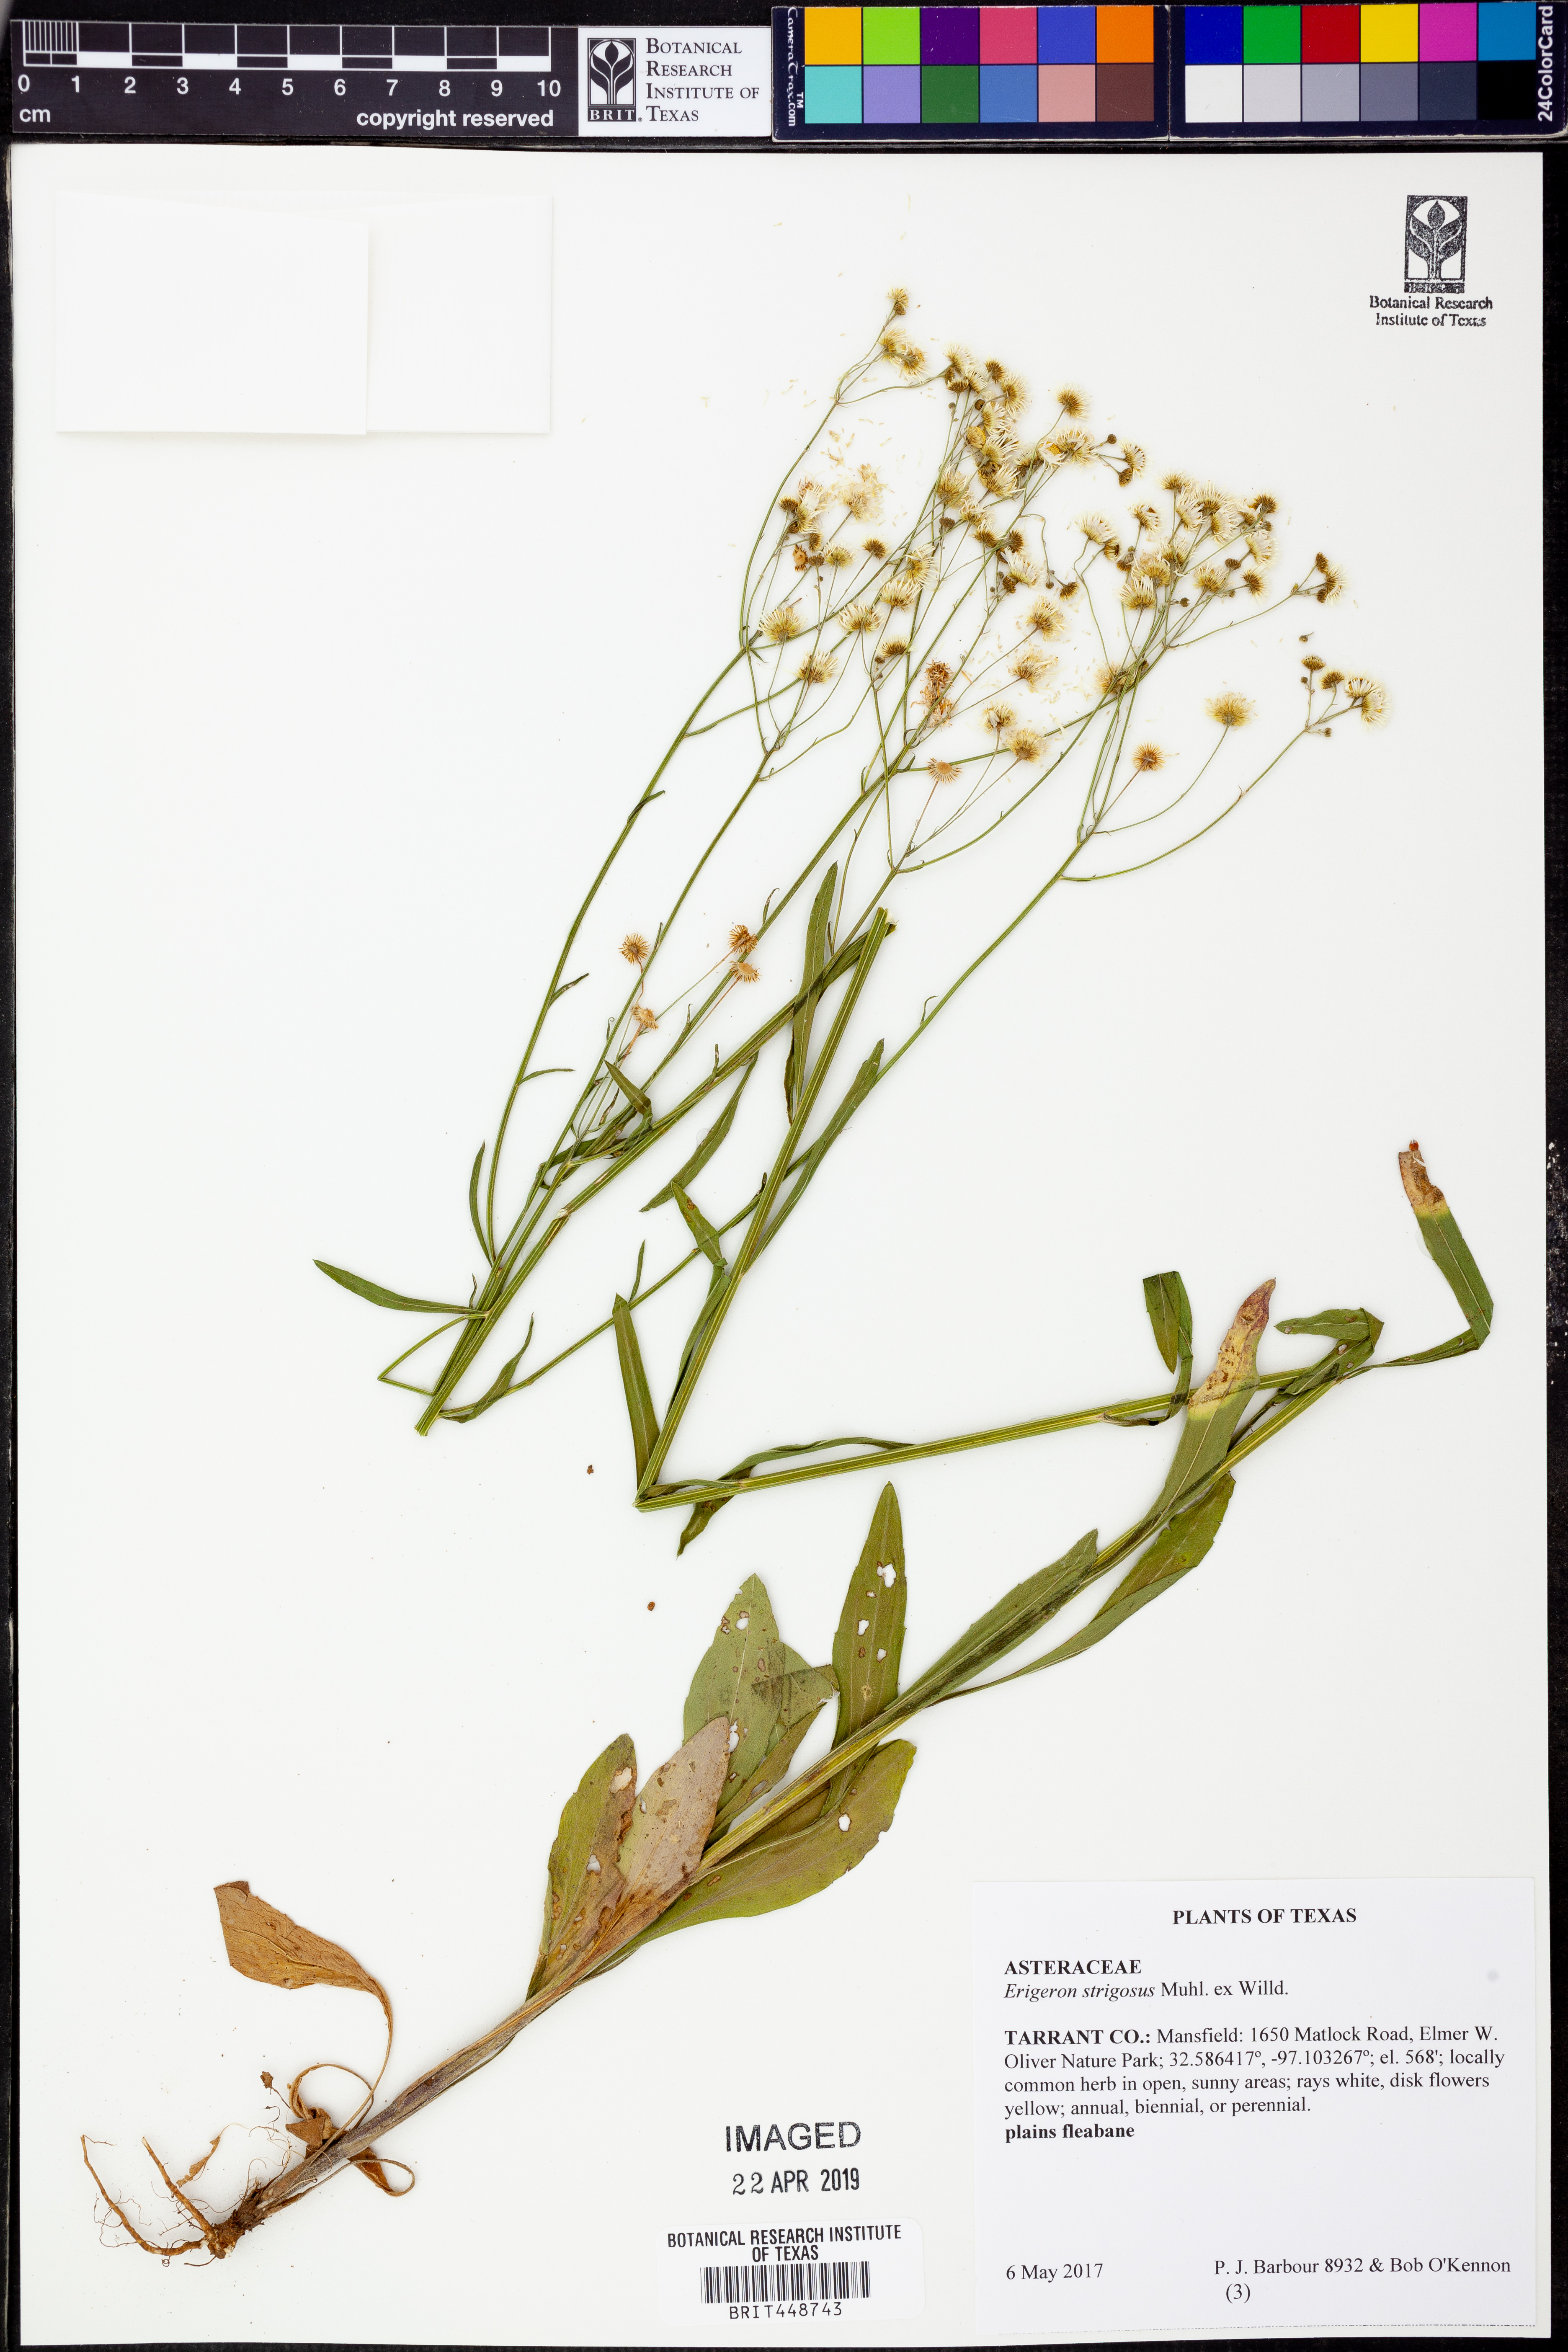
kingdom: Plantae
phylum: Tracheophyta
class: Magnoliopsida
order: Asterales
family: Asteraceae
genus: Erigeron
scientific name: Erigeron strigosus
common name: Common eastern fleabane
